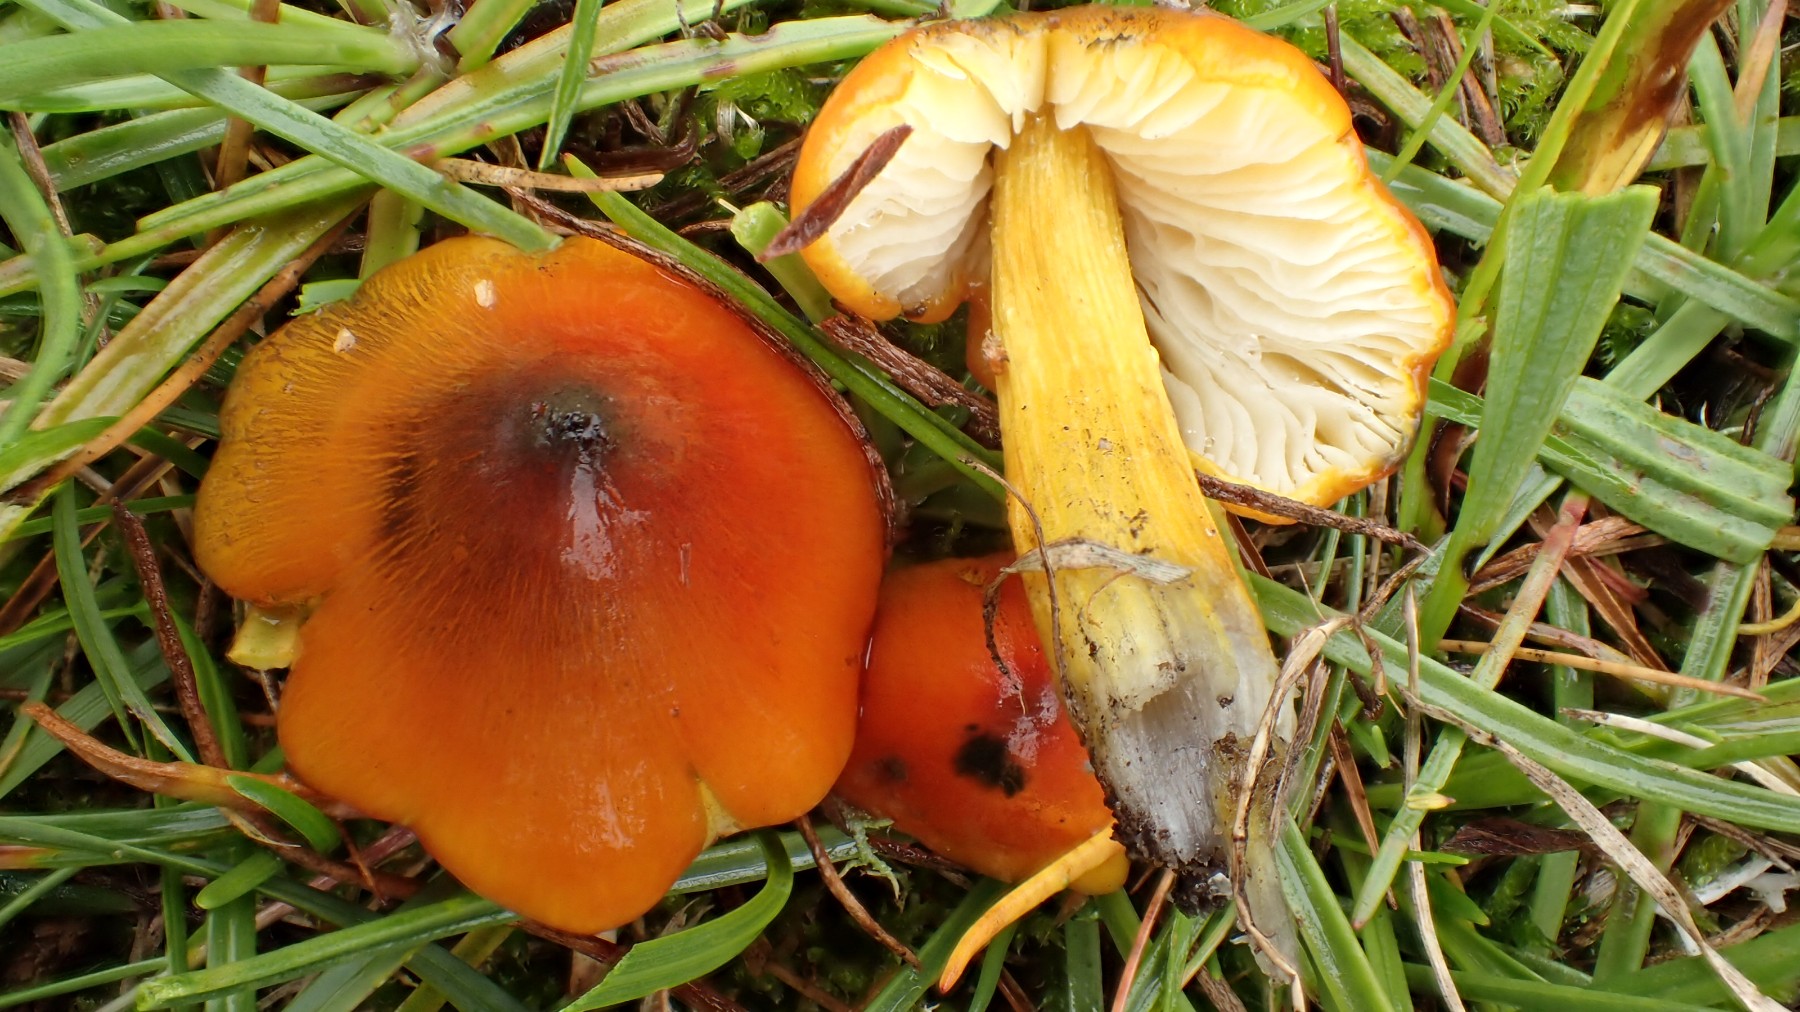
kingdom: Fungi
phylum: Basidiomycota
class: Agaricomycetes
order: Agaricales
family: Hygrophoraceae
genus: Hygrocybe
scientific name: Hygrocybe conica
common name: kegle-vokshat
